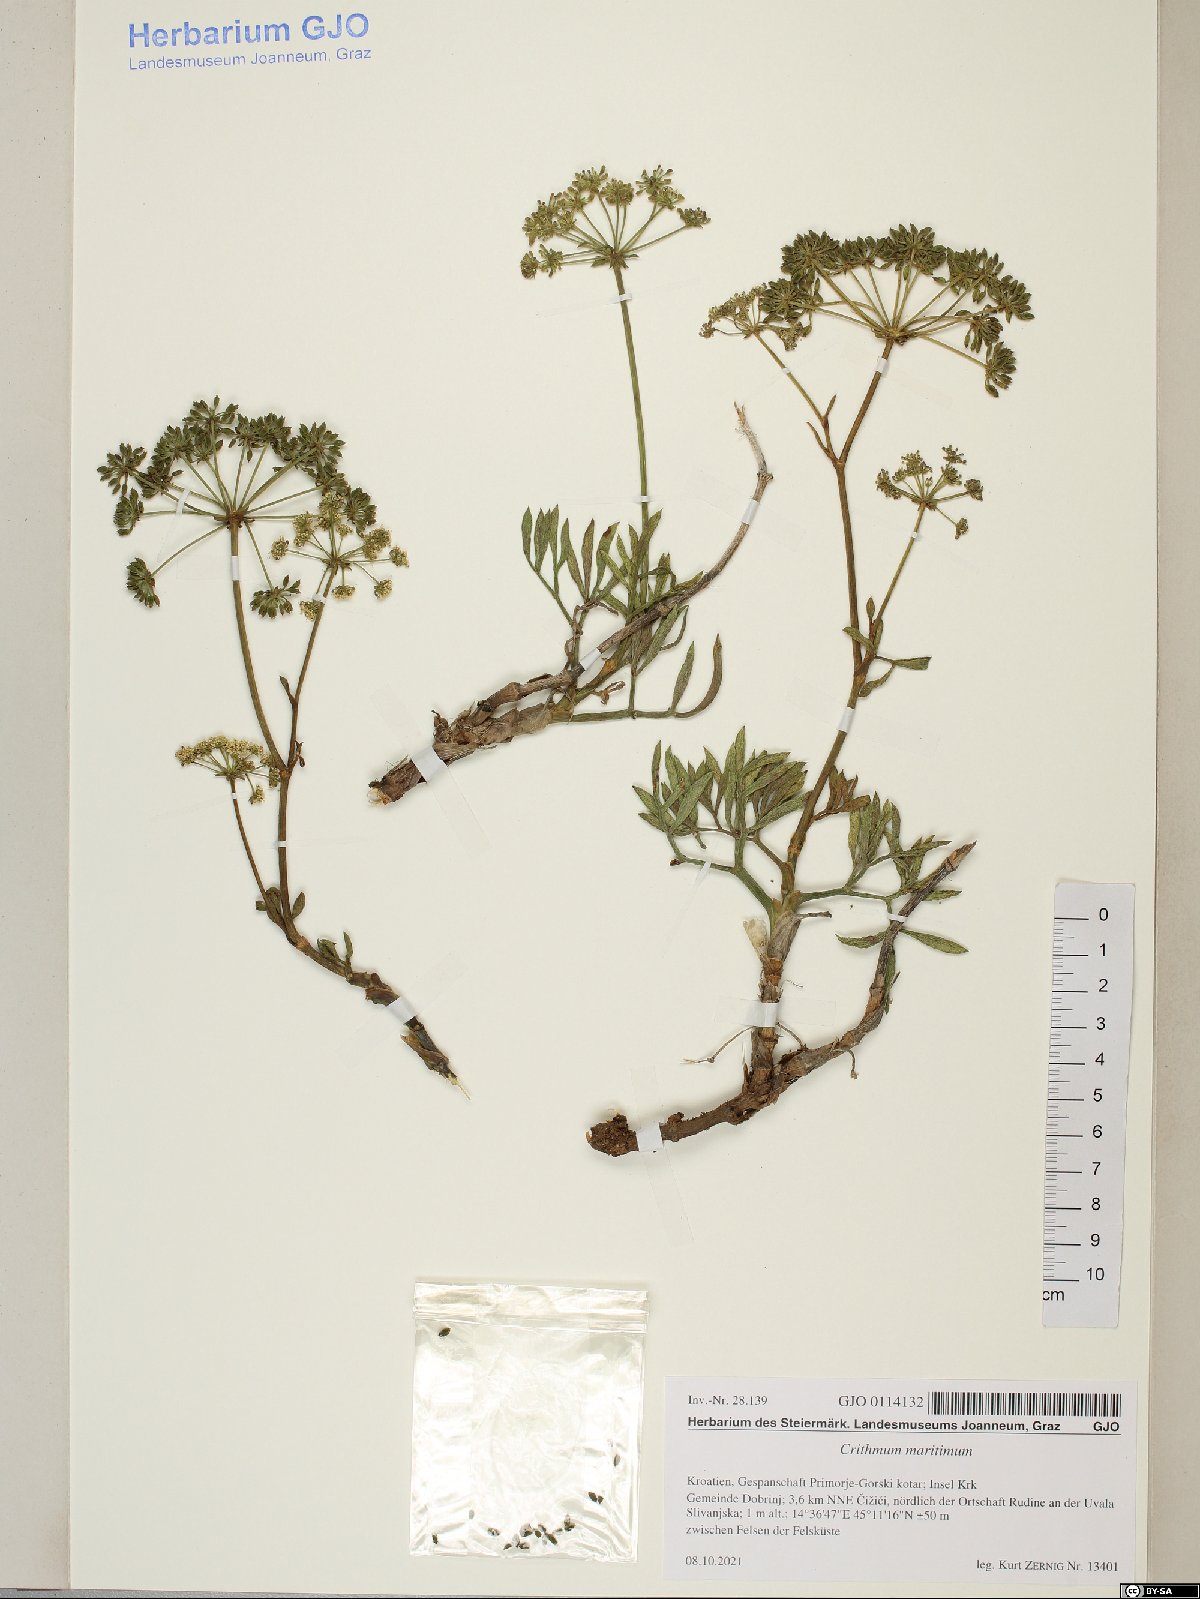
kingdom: Plantae
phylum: Tracheophyta
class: Magnoliopsida
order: Apiales
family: Apiaceae
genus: Crithmum
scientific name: Crithmum maritimum
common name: Rock samphire
